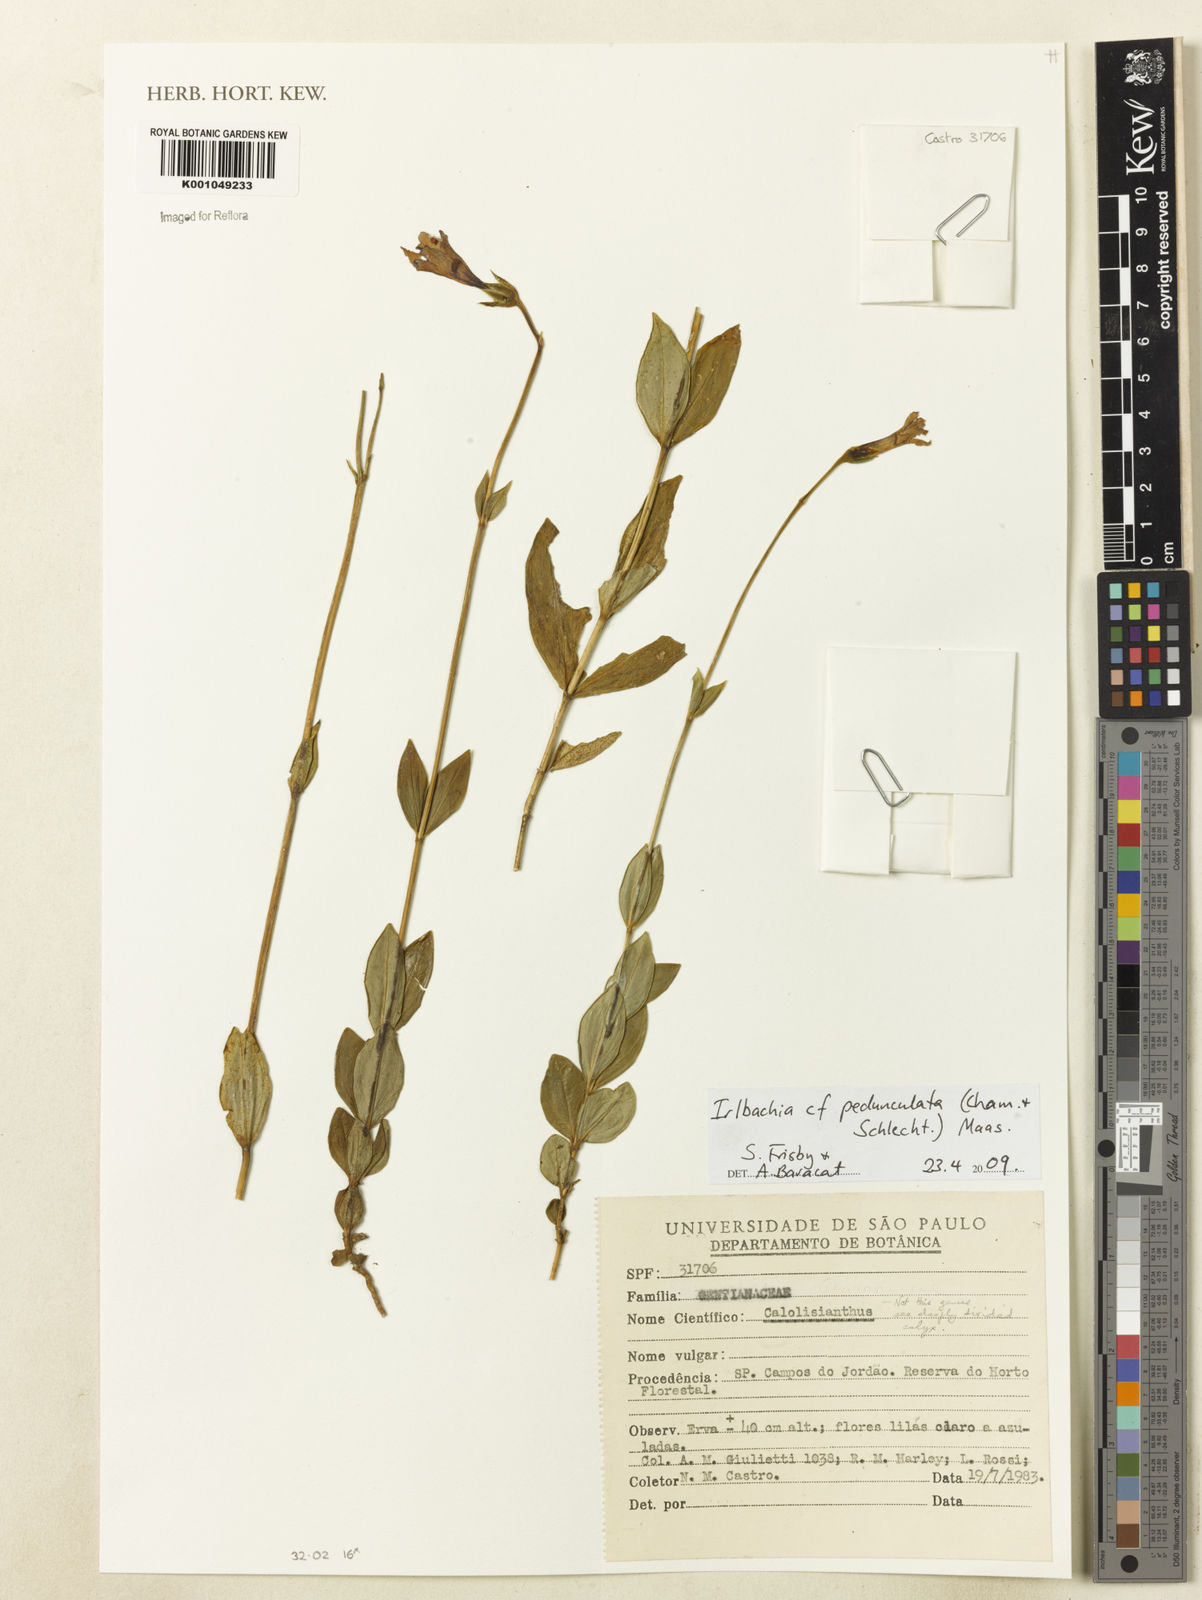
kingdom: Plantae
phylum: Tracheophyta
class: Magnoliopsida
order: Gentianales
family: Gentianaceae
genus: Calolisianthus
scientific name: Calolisianthus pedunculatus
